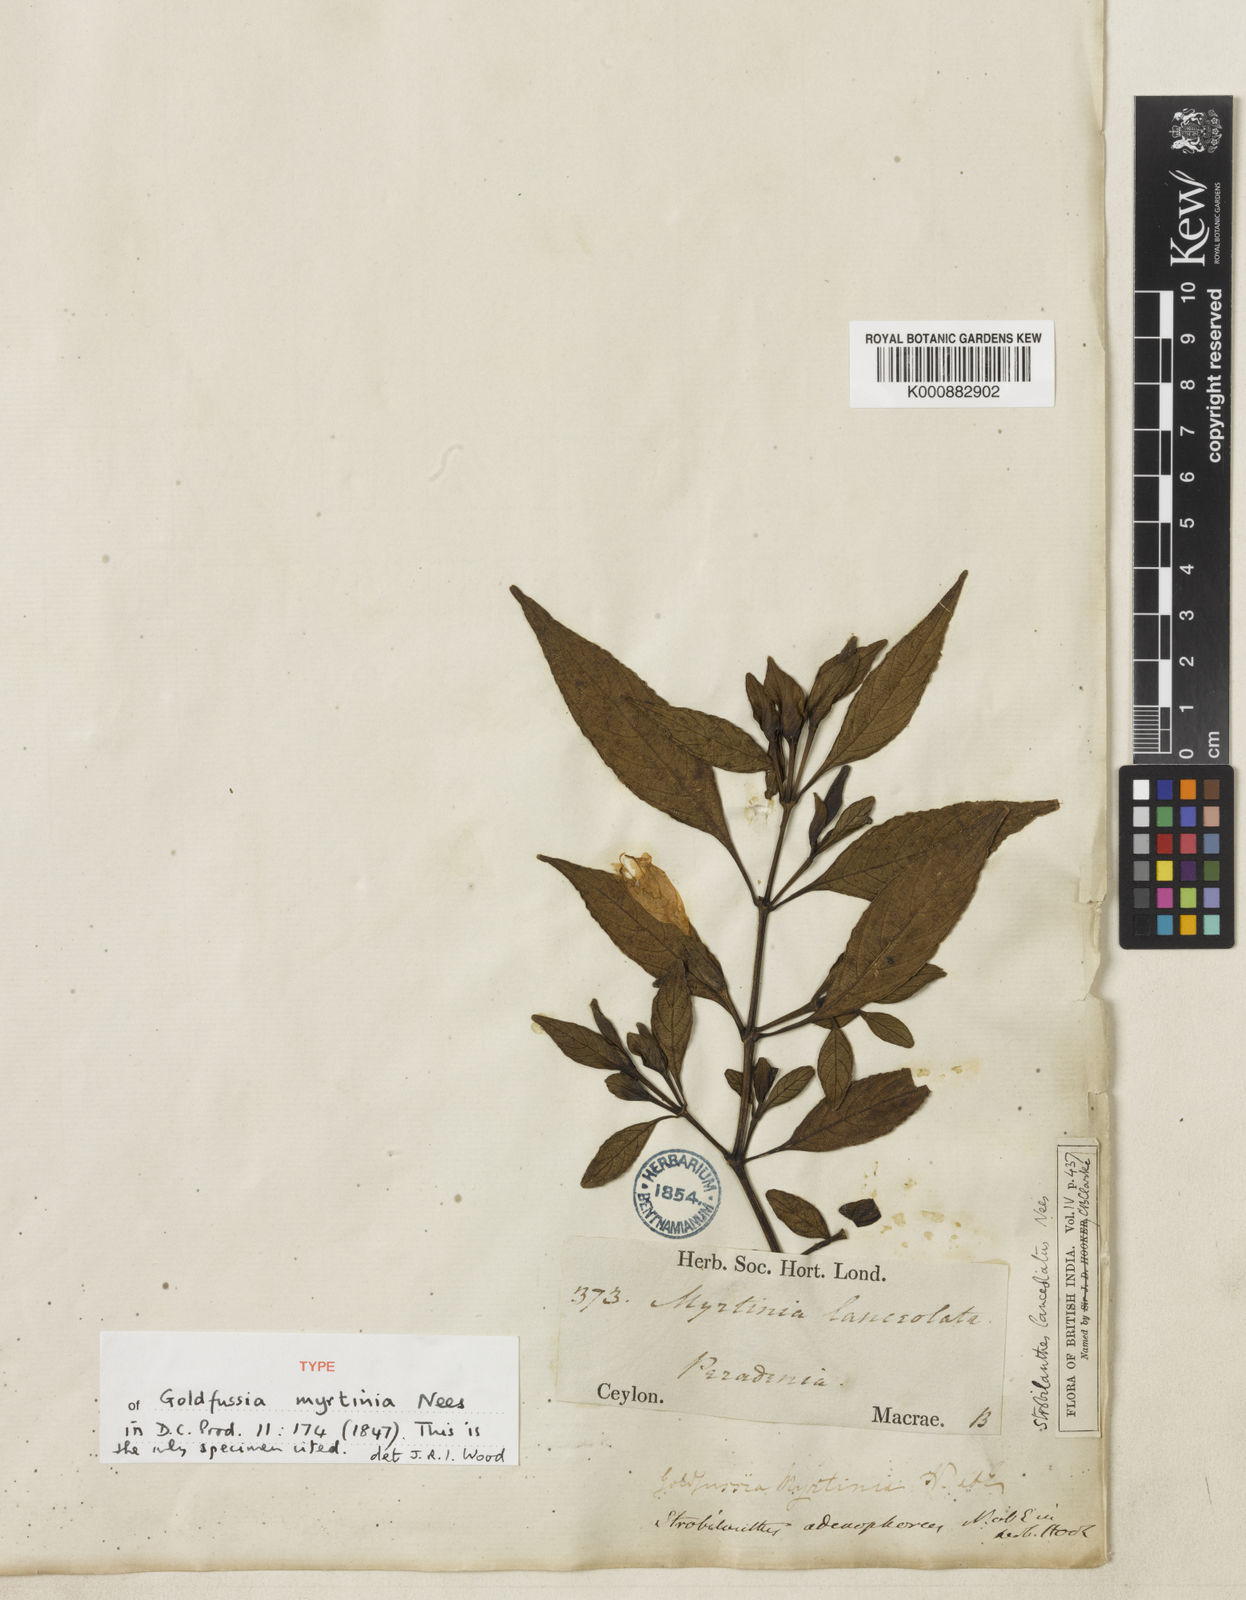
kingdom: Plantae
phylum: Tracheophyta
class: Magnoliopsida
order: Lamiales
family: Acanthaceae
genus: Strobilanthes
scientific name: Strobilanthes adenophora
